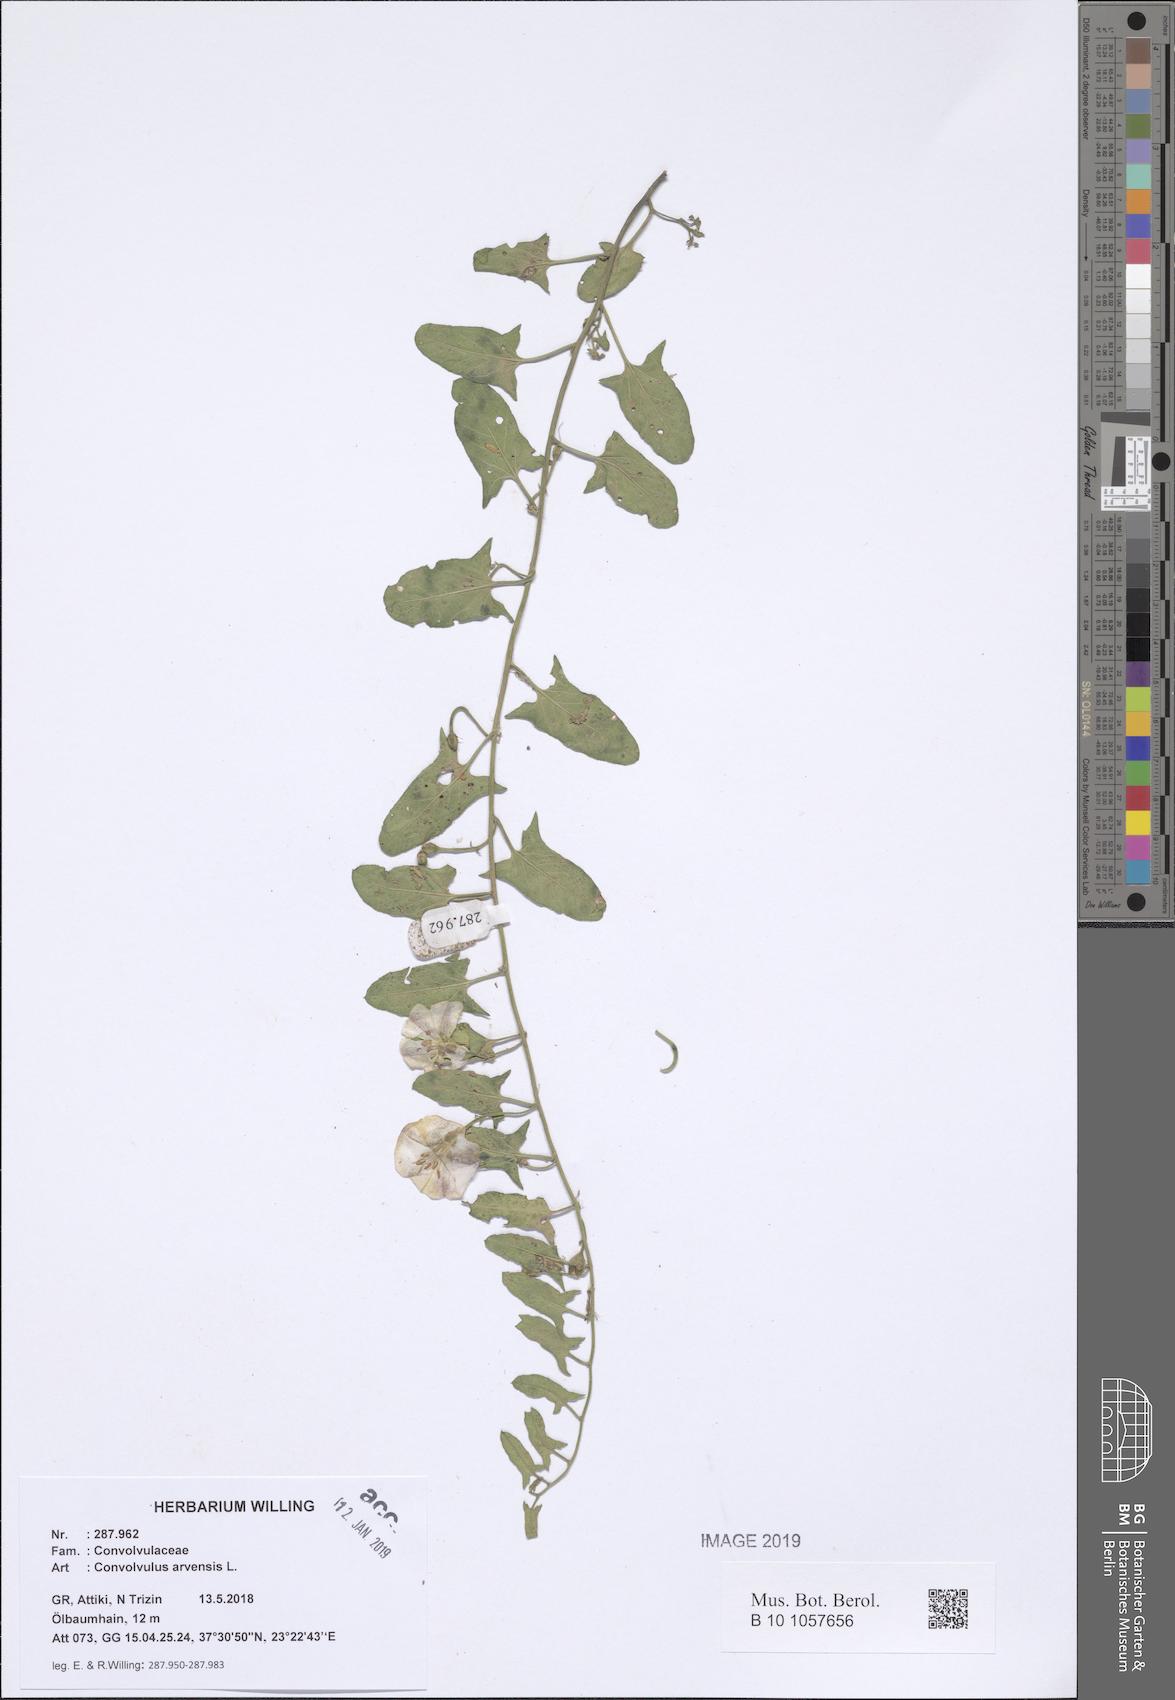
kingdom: Plantae
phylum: Tracheophyta
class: Magnoliopsida
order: Solanales
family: Convolvulaceae
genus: Convolvulus
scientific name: Convolvulus arvensis
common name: Field bindweed
